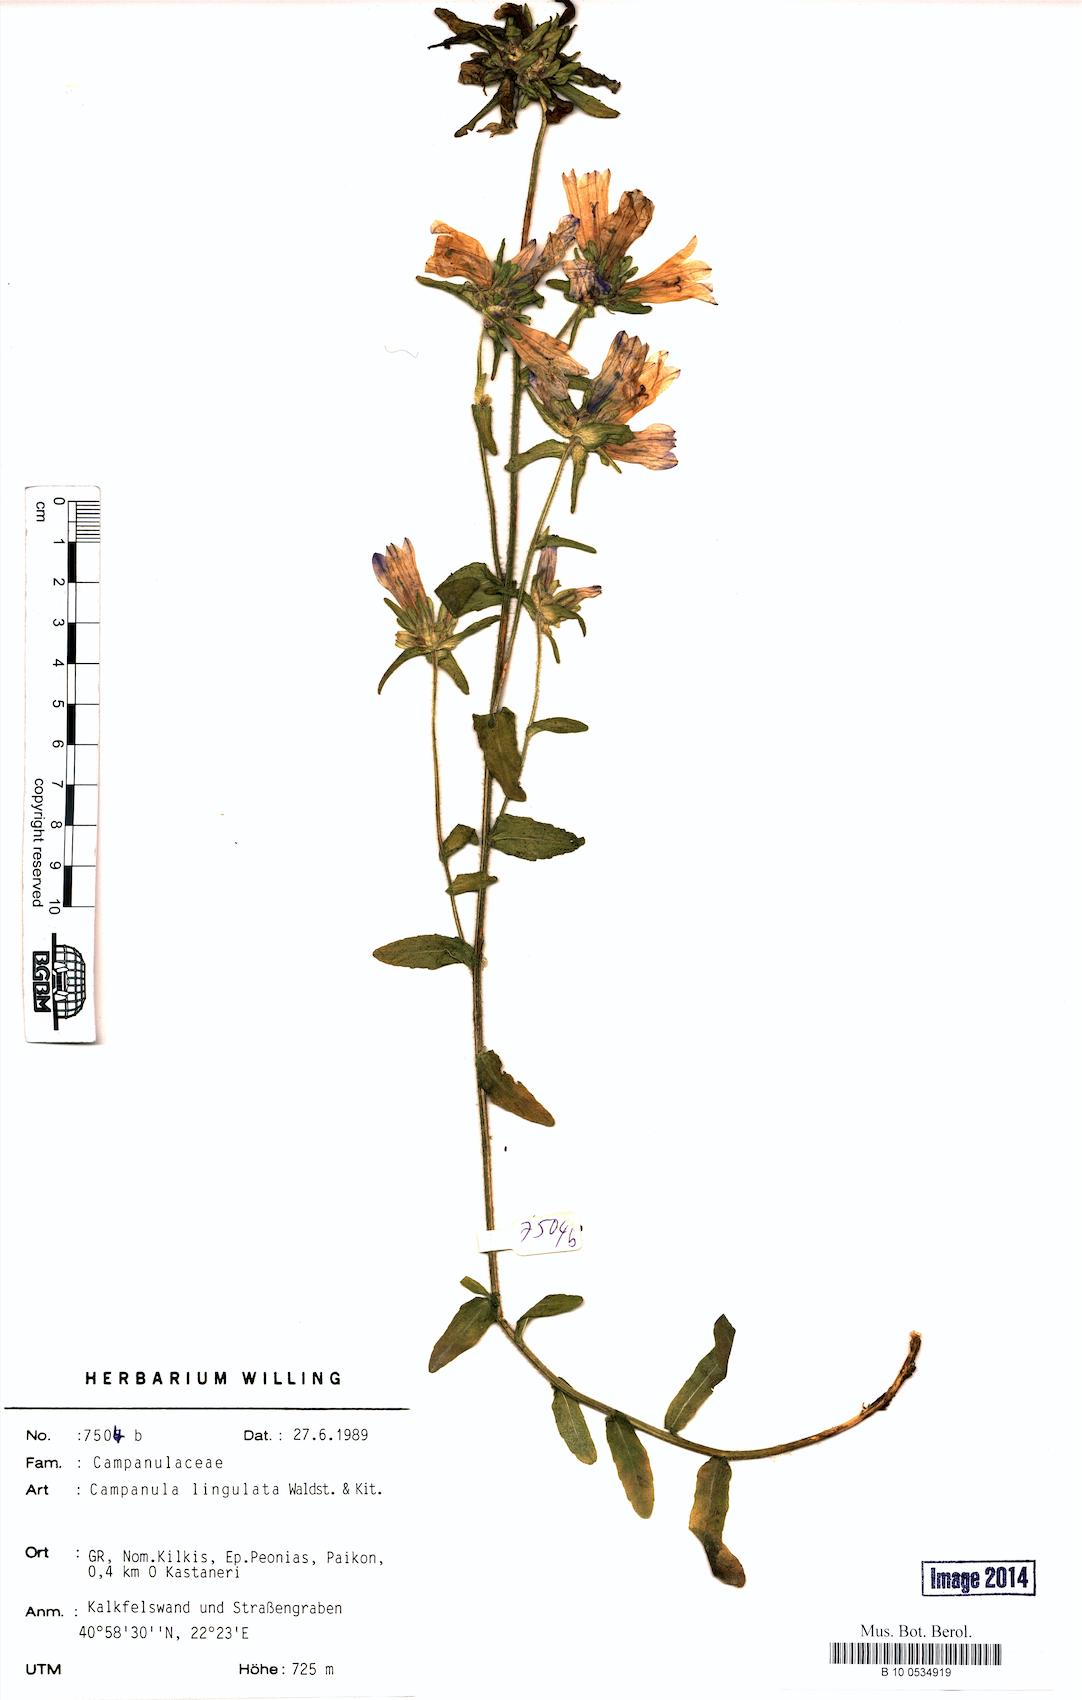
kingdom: Plantae
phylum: Tracheophyta
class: Magnoliopsida
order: Asterales
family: Campanulaceae
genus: Campanula
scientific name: Campanula lingulata
